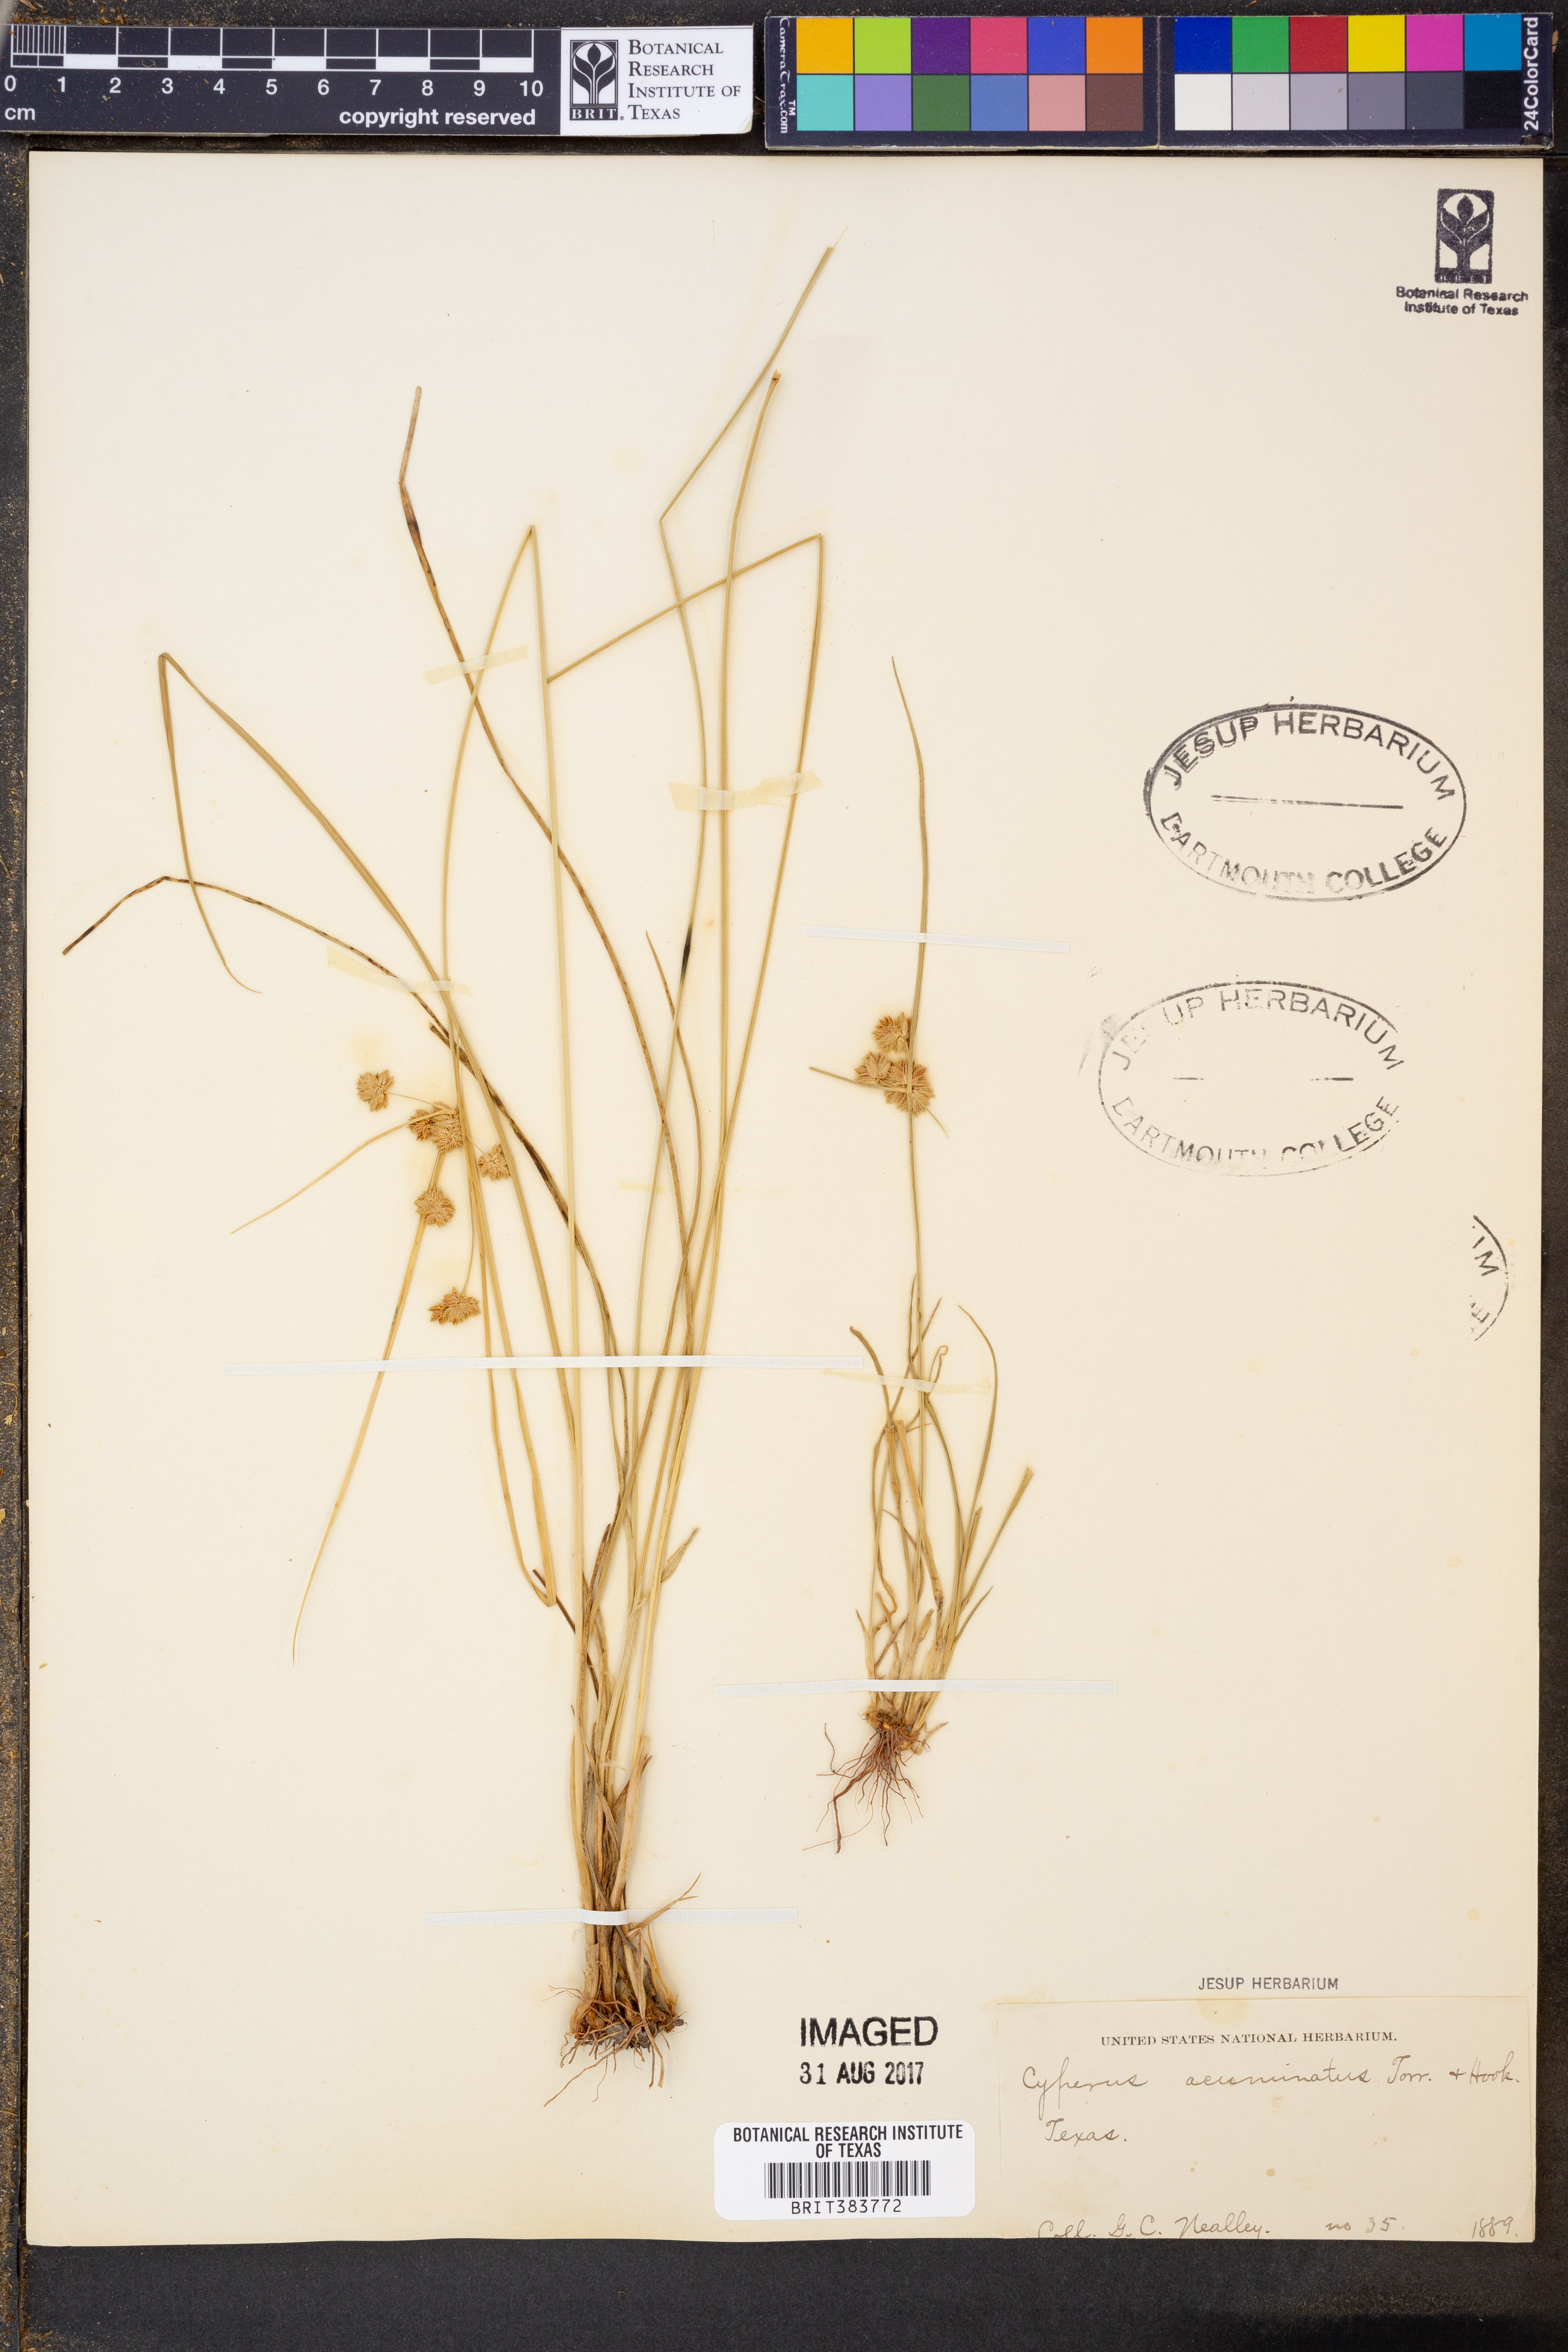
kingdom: Plantae
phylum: Tracheophyta
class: Liliopsida
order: Poales
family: Cyperaceae
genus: Cyperus
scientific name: Cyperus acuminatus
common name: Short-pointed cyperus
